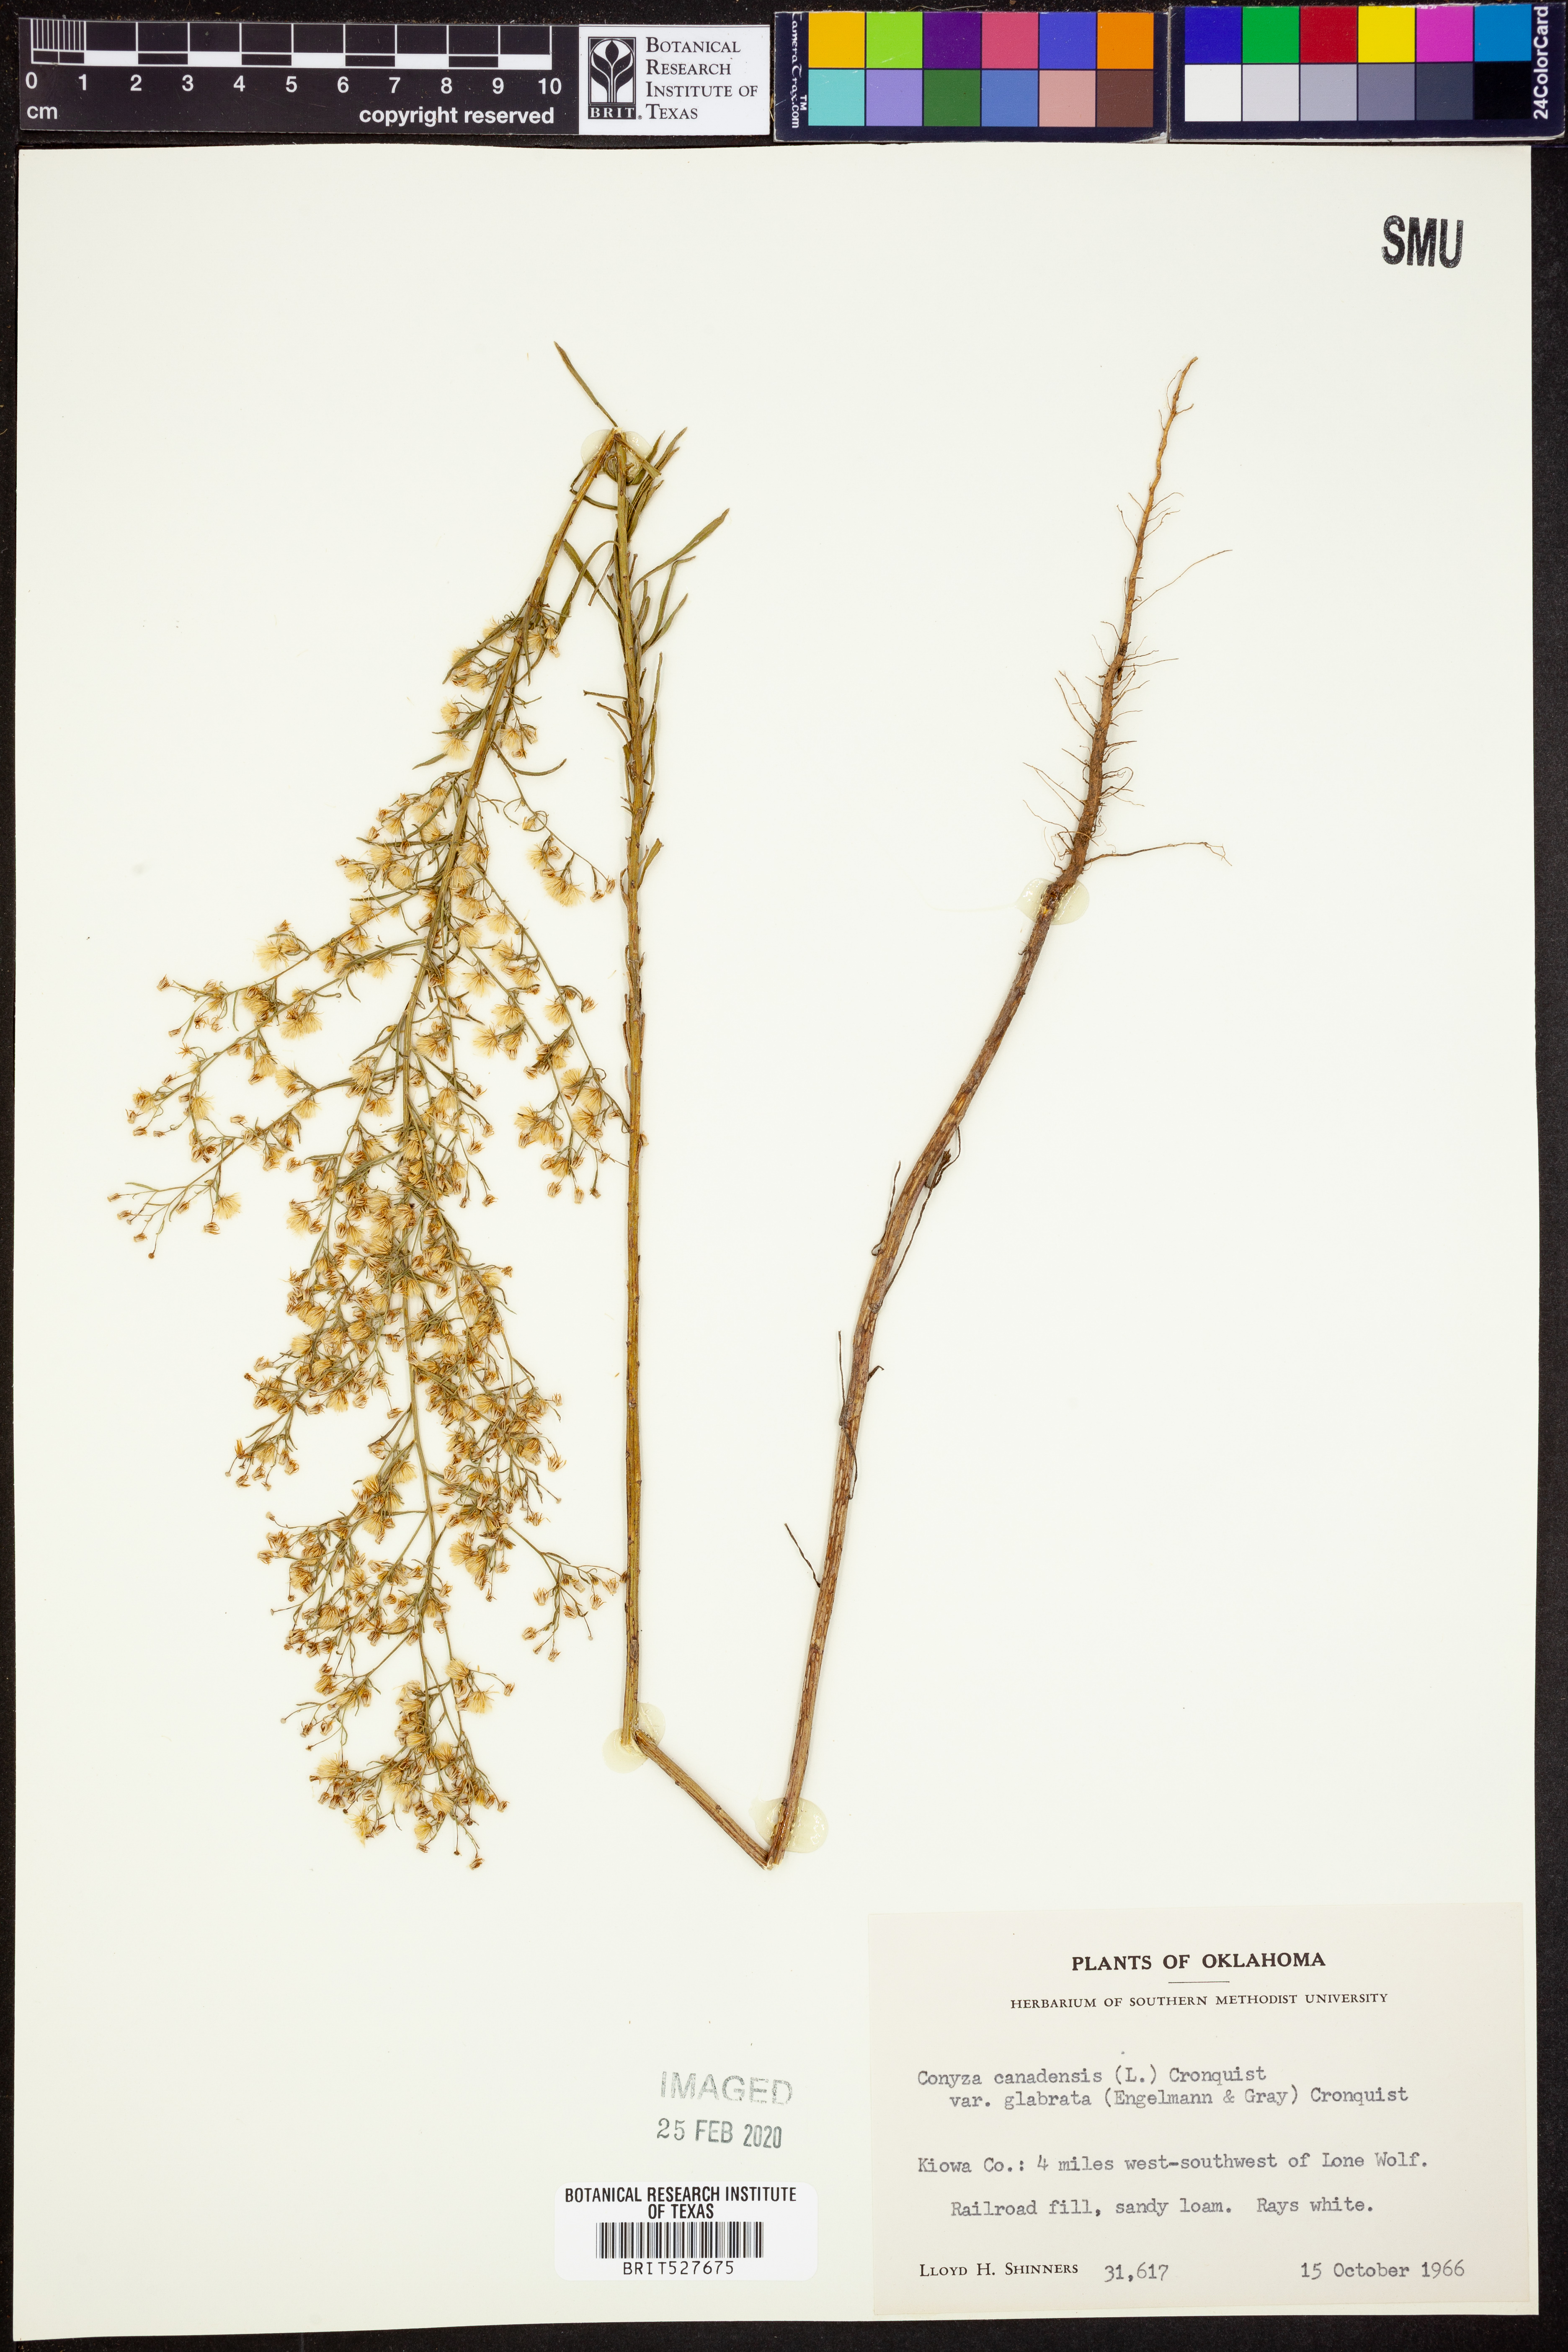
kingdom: Plantae
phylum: Tracheophyta
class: Magnoliopsida
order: Asterales
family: Asteraceae
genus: Erigeron
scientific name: Erigeron canadensis
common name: Canadian fleabane
